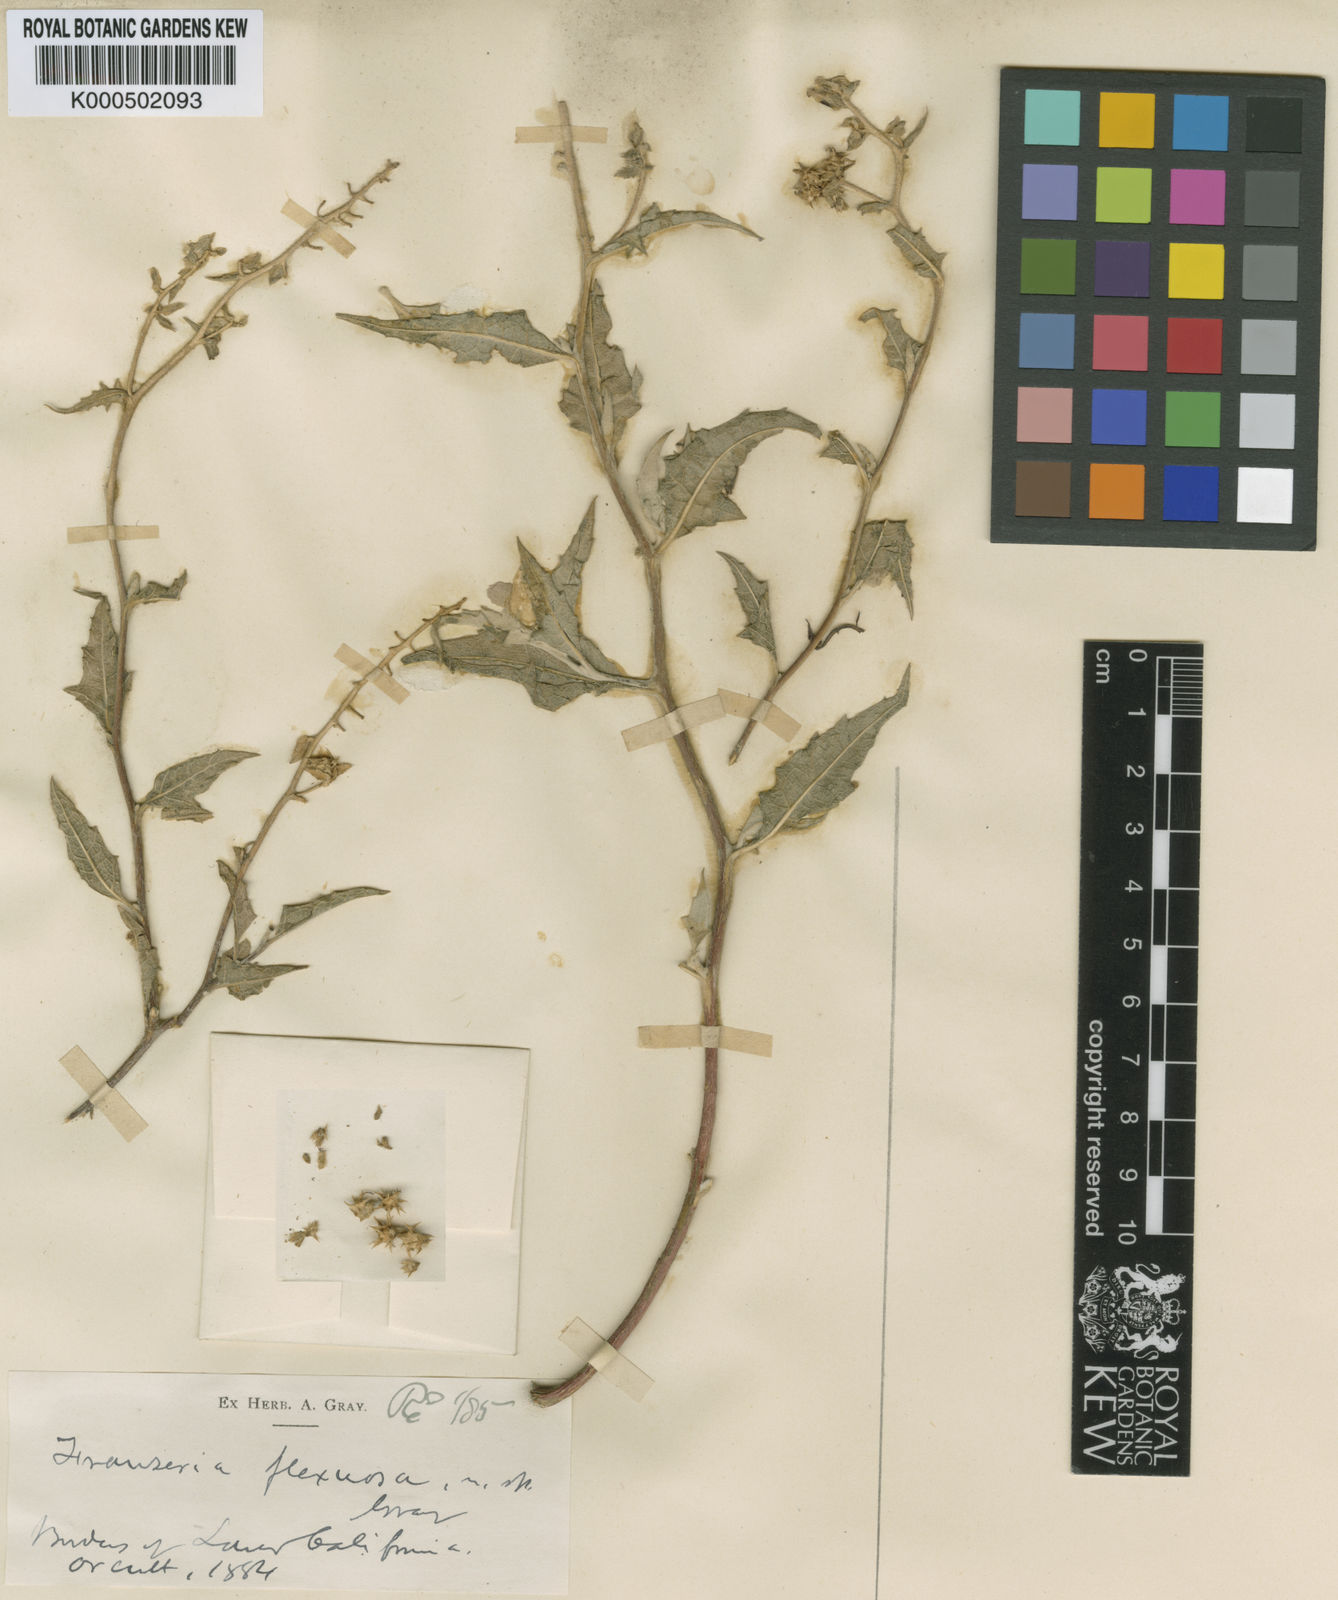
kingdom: Plantae
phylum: Tracheophyta
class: Magnoliopsida
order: Asterales
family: Asteraceae
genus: Ambrosia
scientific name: Ambrosia flexuosa
